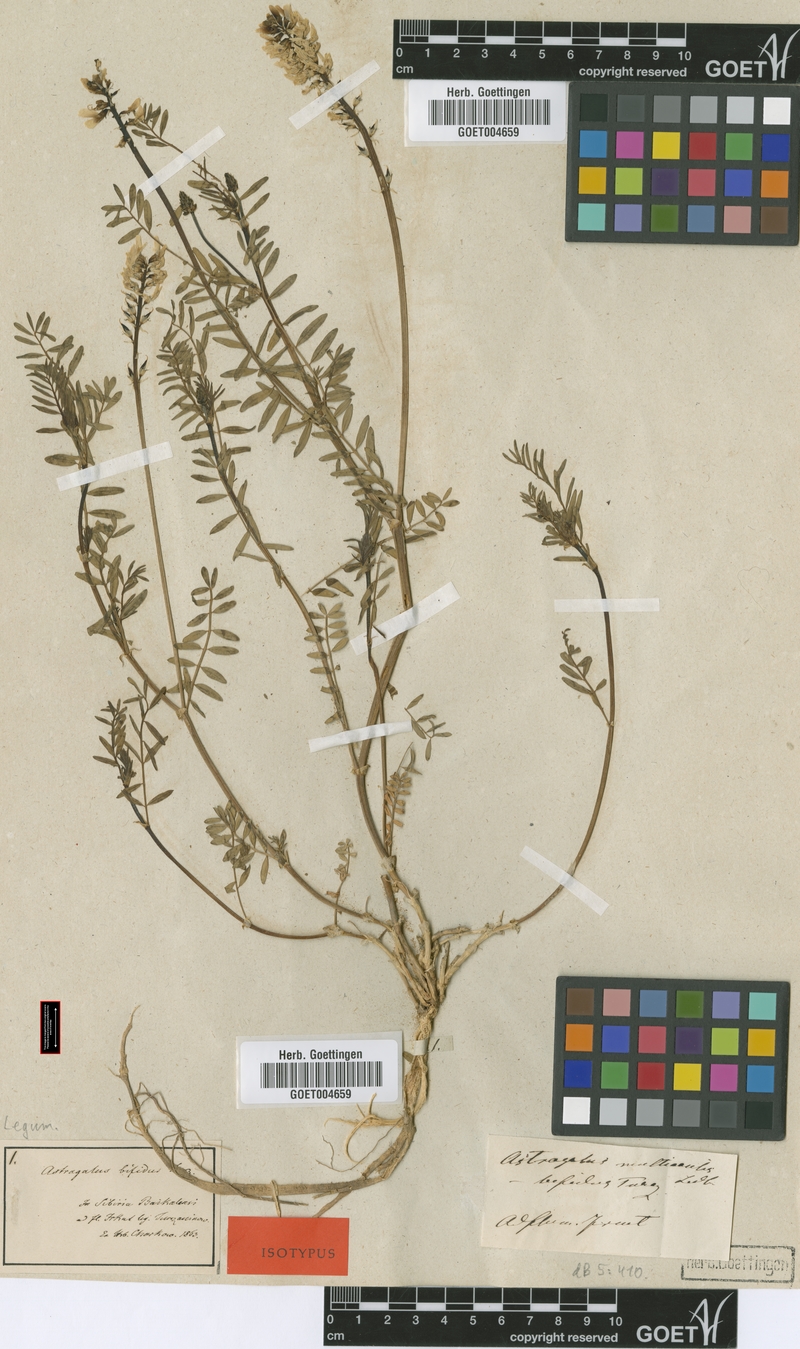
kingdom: Plantae
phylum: Tracheophyta
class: Magnoliopsida
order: Fabales
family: Fabaceae
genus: Astragalus
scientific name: Astragalus versicolor
